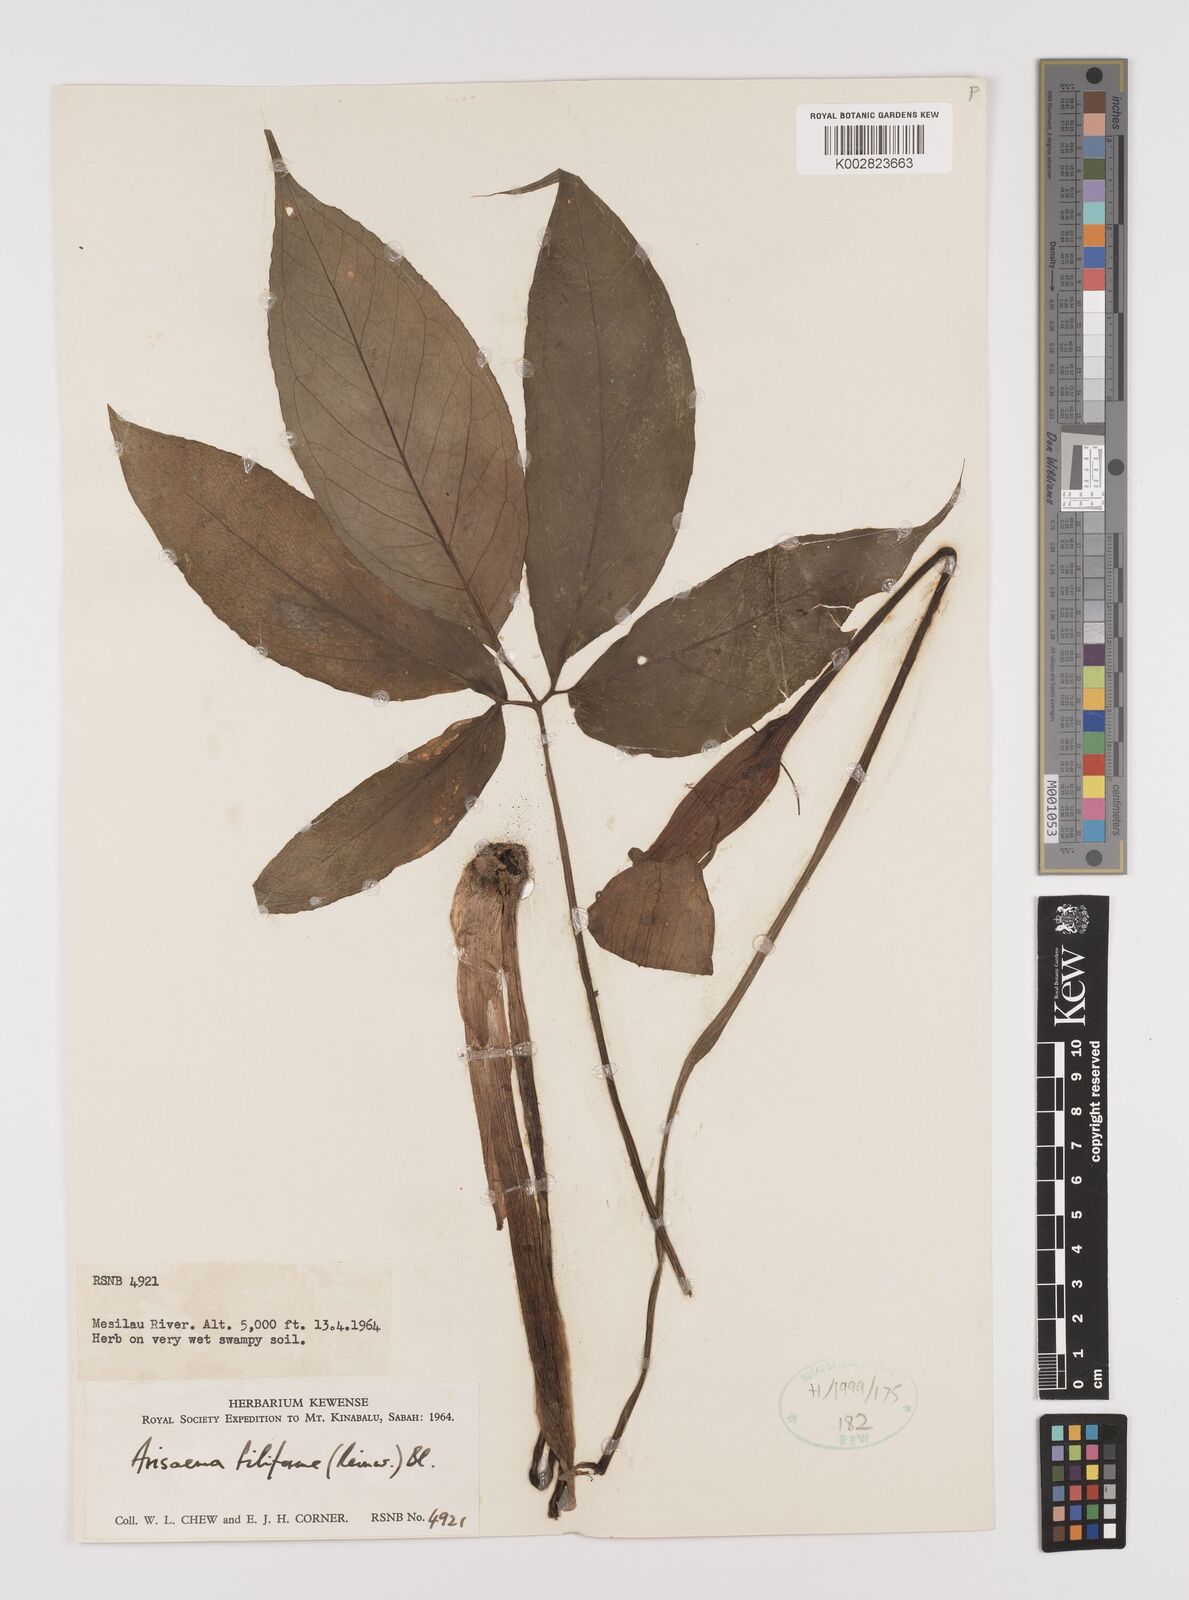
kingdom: Plantae
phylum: Tracheophyta
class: Liliopsida
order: Alismatales
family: Araceae
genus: Arisaema
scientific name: Arisaema filiforme
